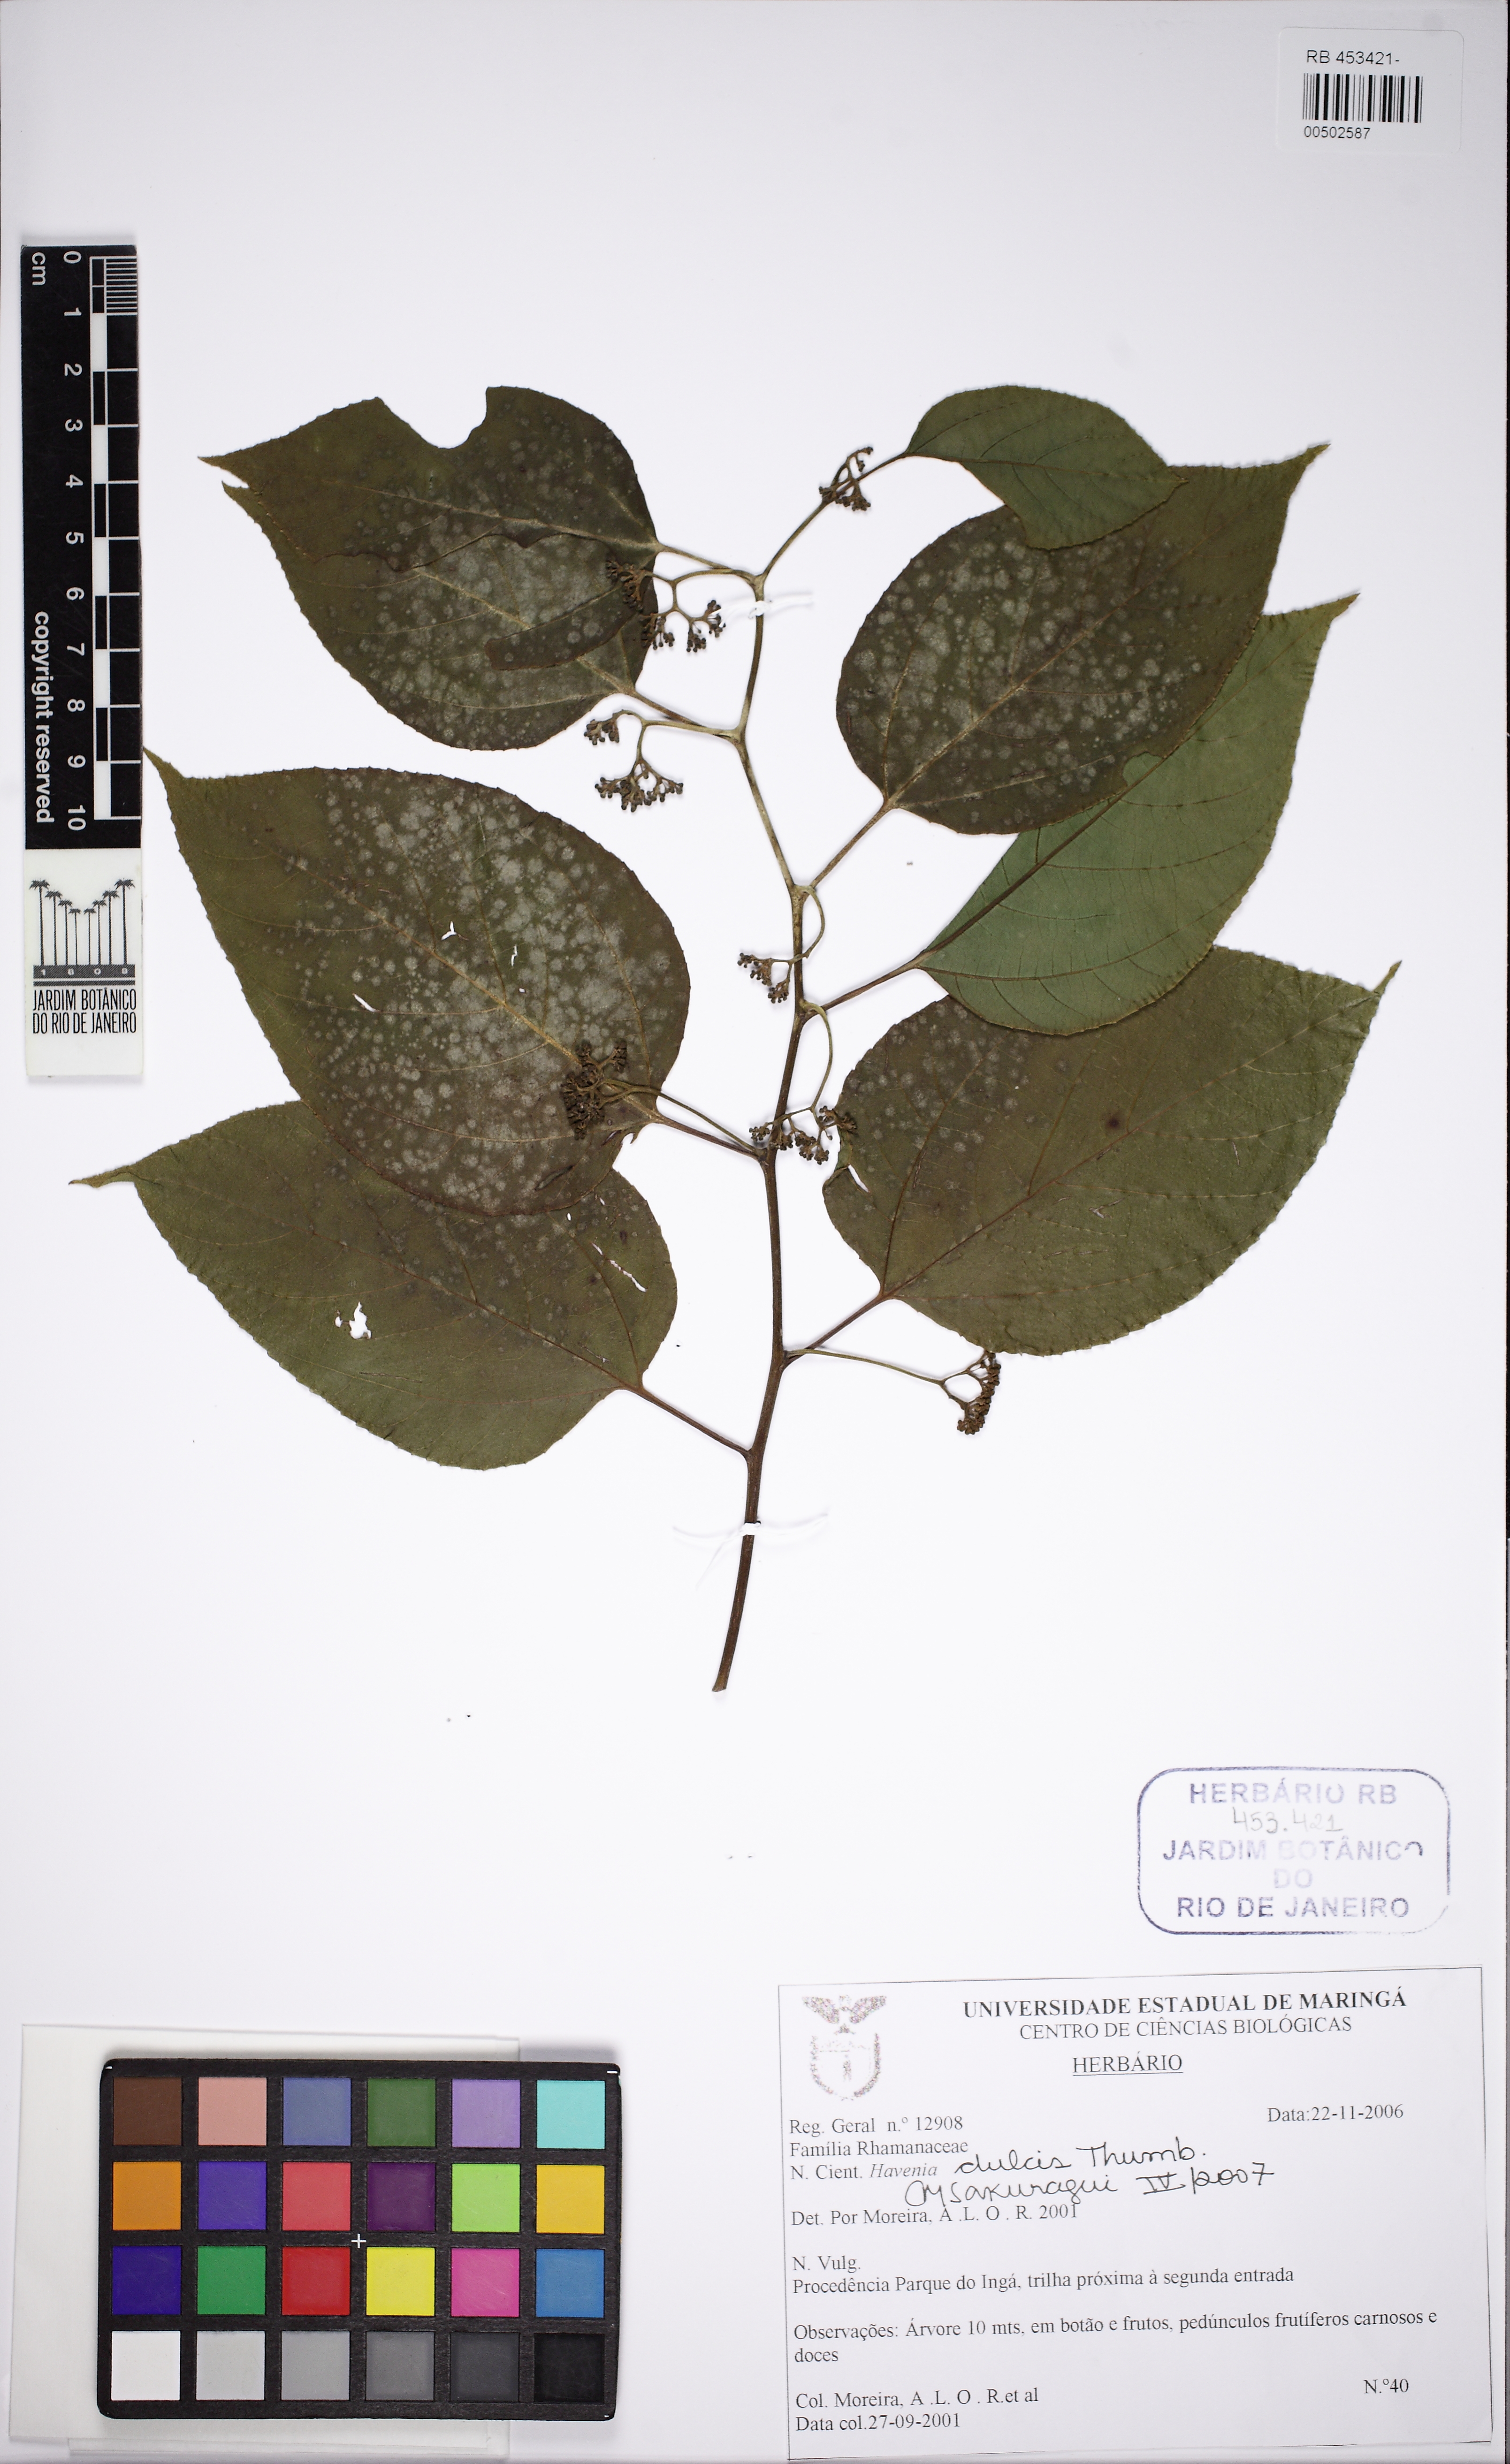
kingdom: Plantae
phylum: Tracheophyta
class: Magnoliopsida
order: Rosales
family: Rhamnaceae
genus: Hovenia
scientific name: Hovenia dulcis
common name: Japanese raisintree
